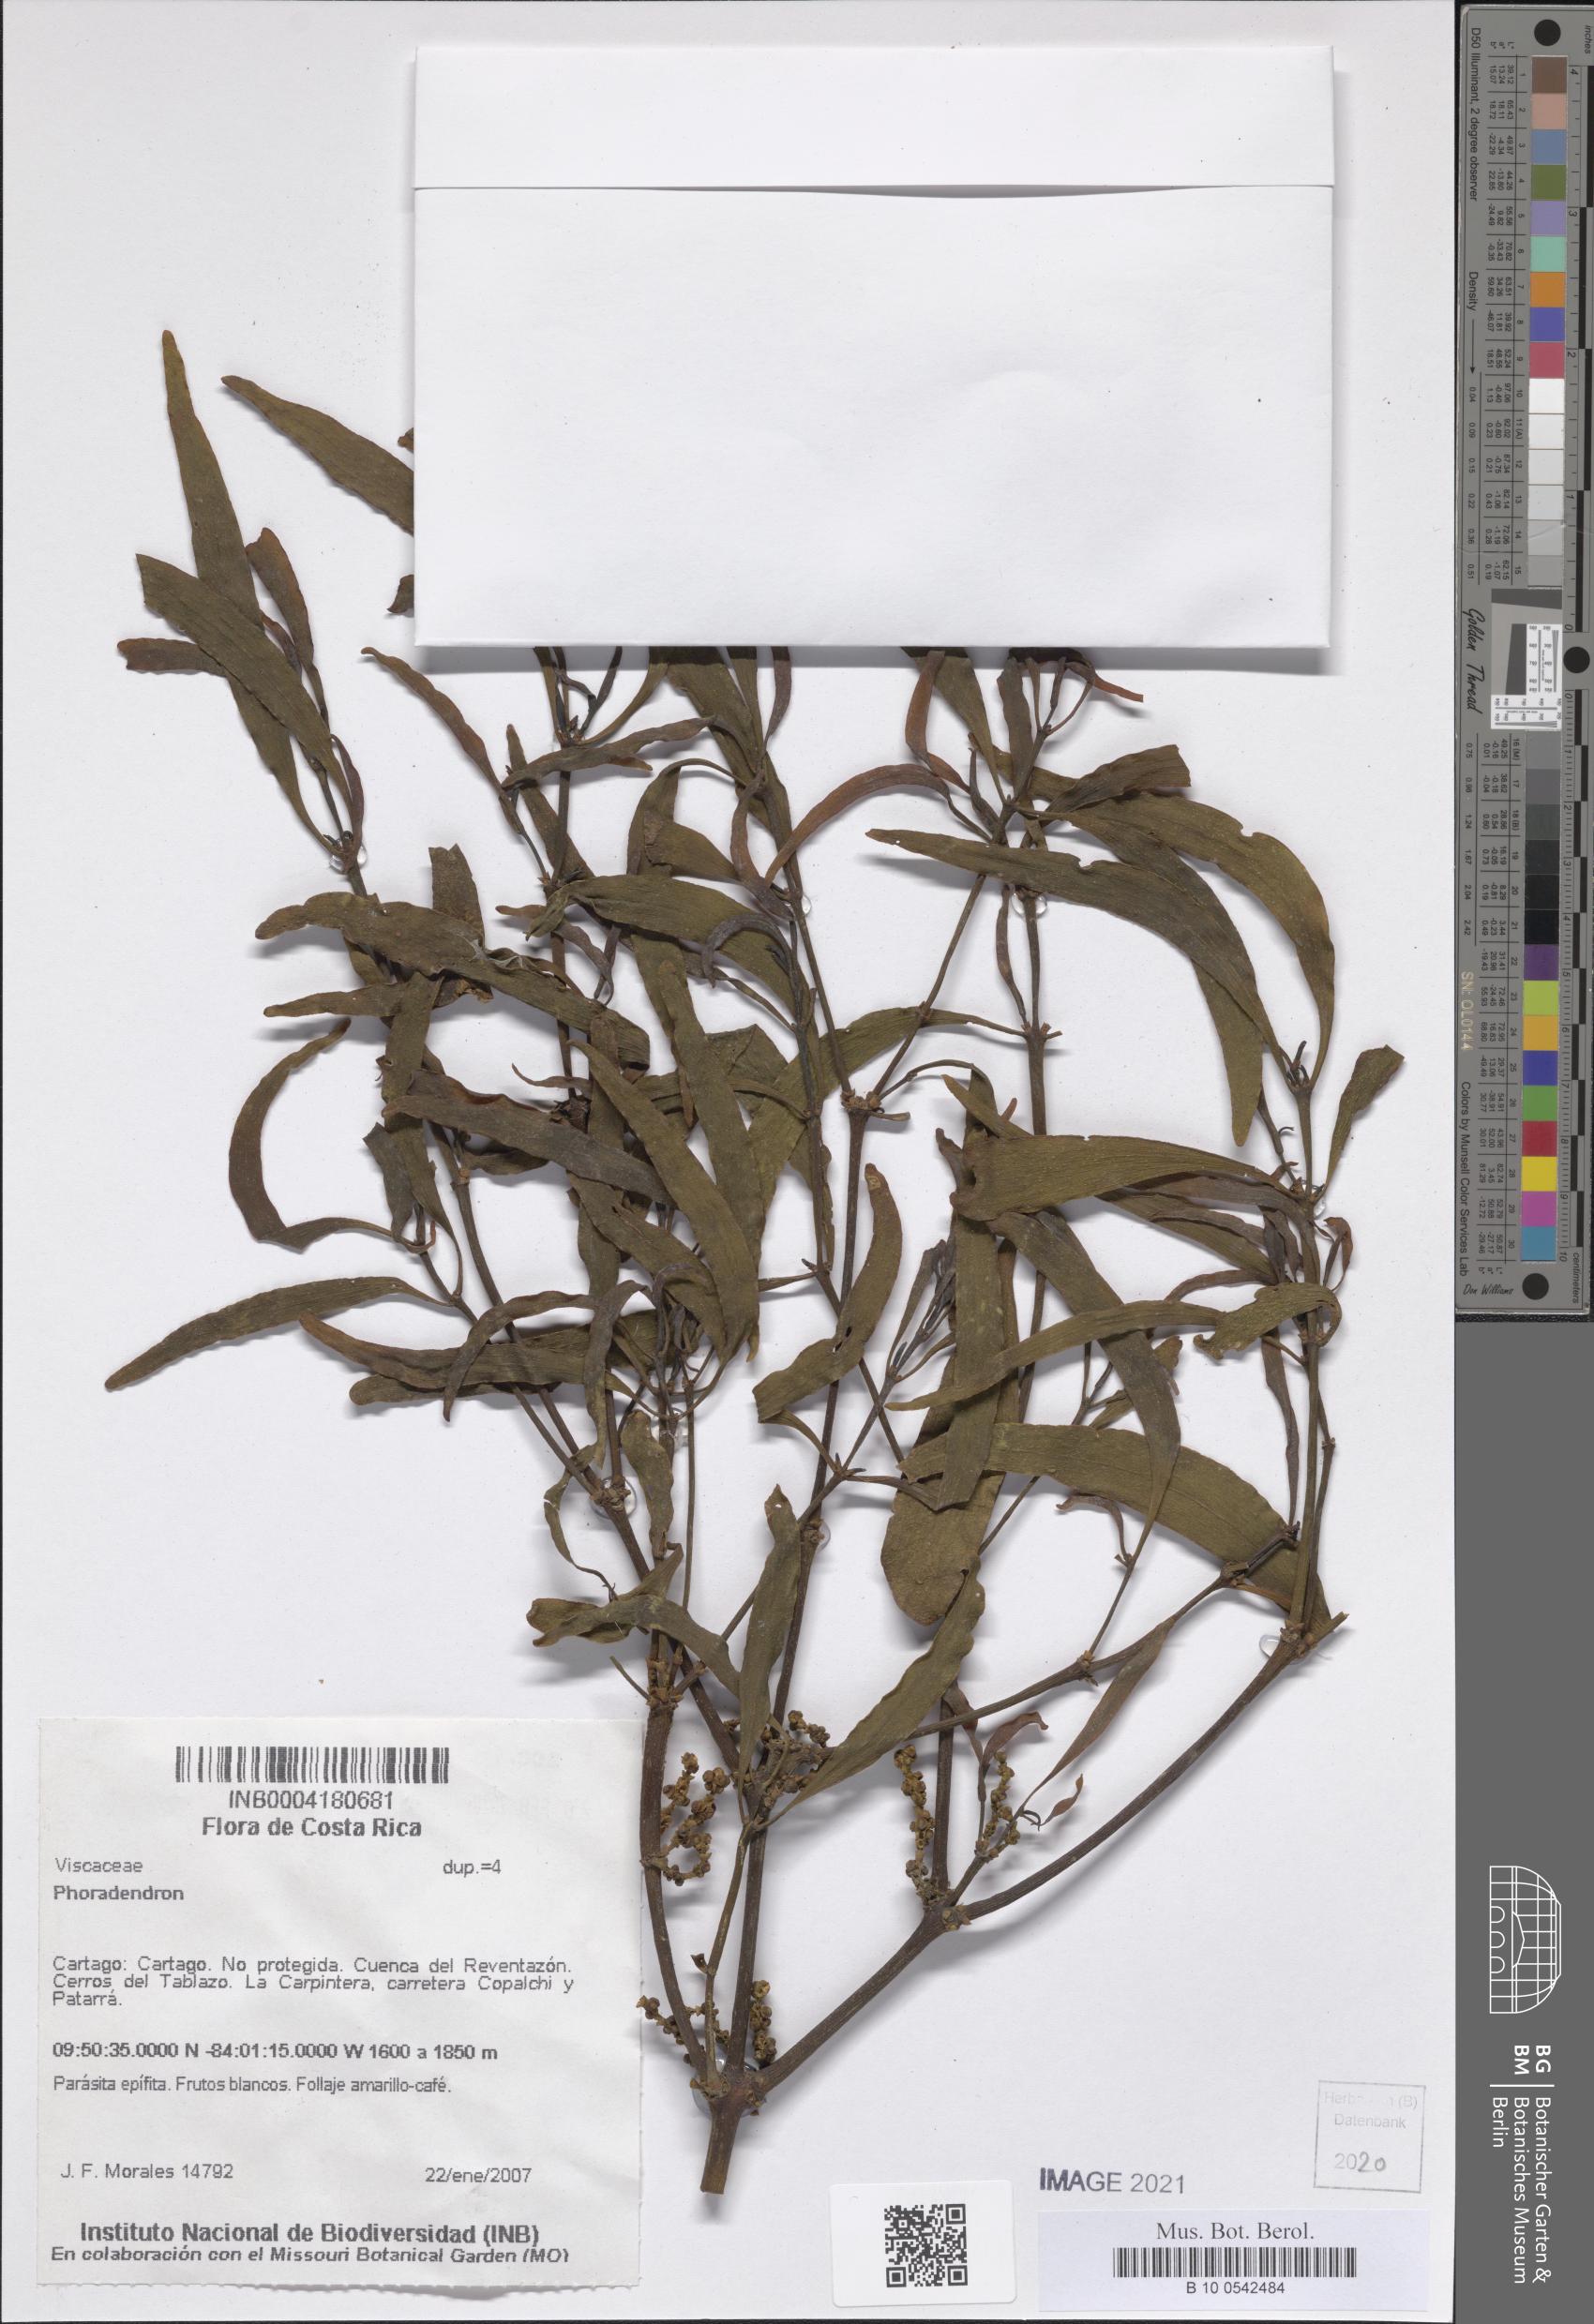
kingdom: Plantae
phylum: Tracheophyta
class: Magnoliopsida
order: Santalales
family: Viscaceae
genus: Phoradendron
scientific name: Phoradendron
